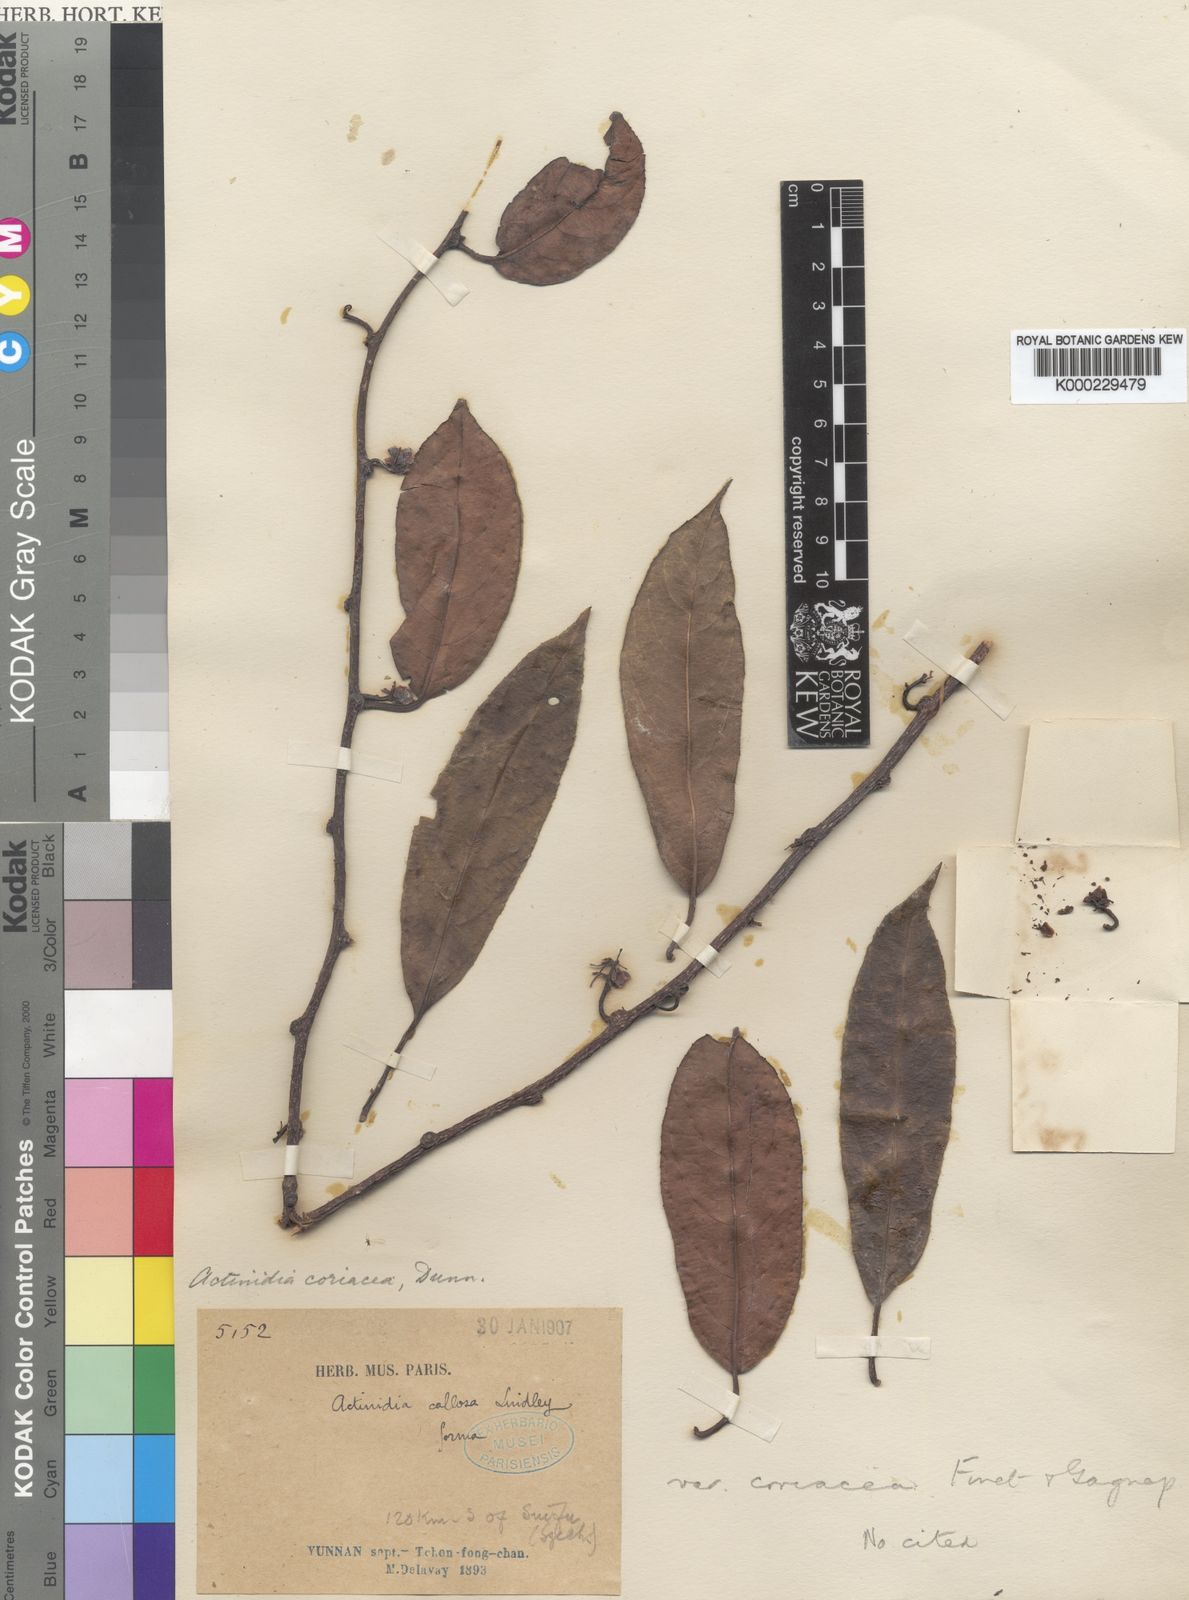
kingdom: Plantae
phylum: Tracheophyta
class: Magnoliopsida
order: Ericales
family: Actinidiaceae
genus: Actinidia
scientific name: Actinidia rubricaulis
